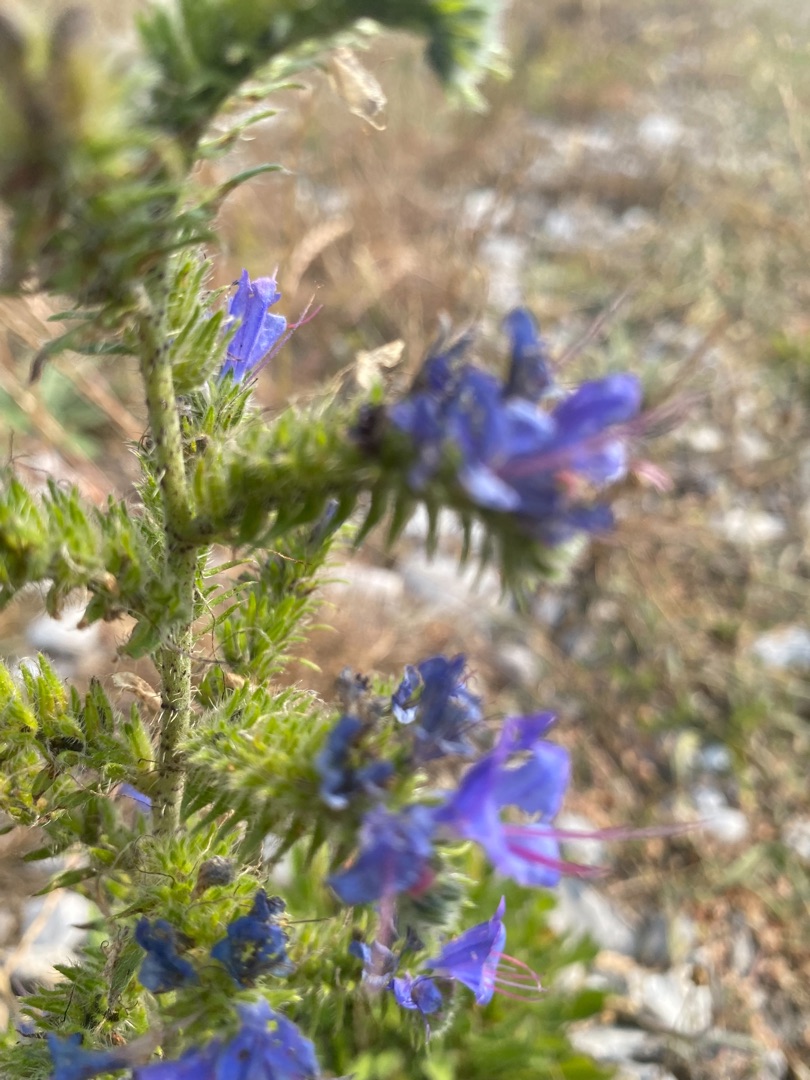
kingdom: Plantae
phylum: Tracheophyta
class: Magnoliopsida
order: Boraginales
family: Boraginaceae
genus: Echium
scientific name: Echium vulgare
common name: Slangehoved
